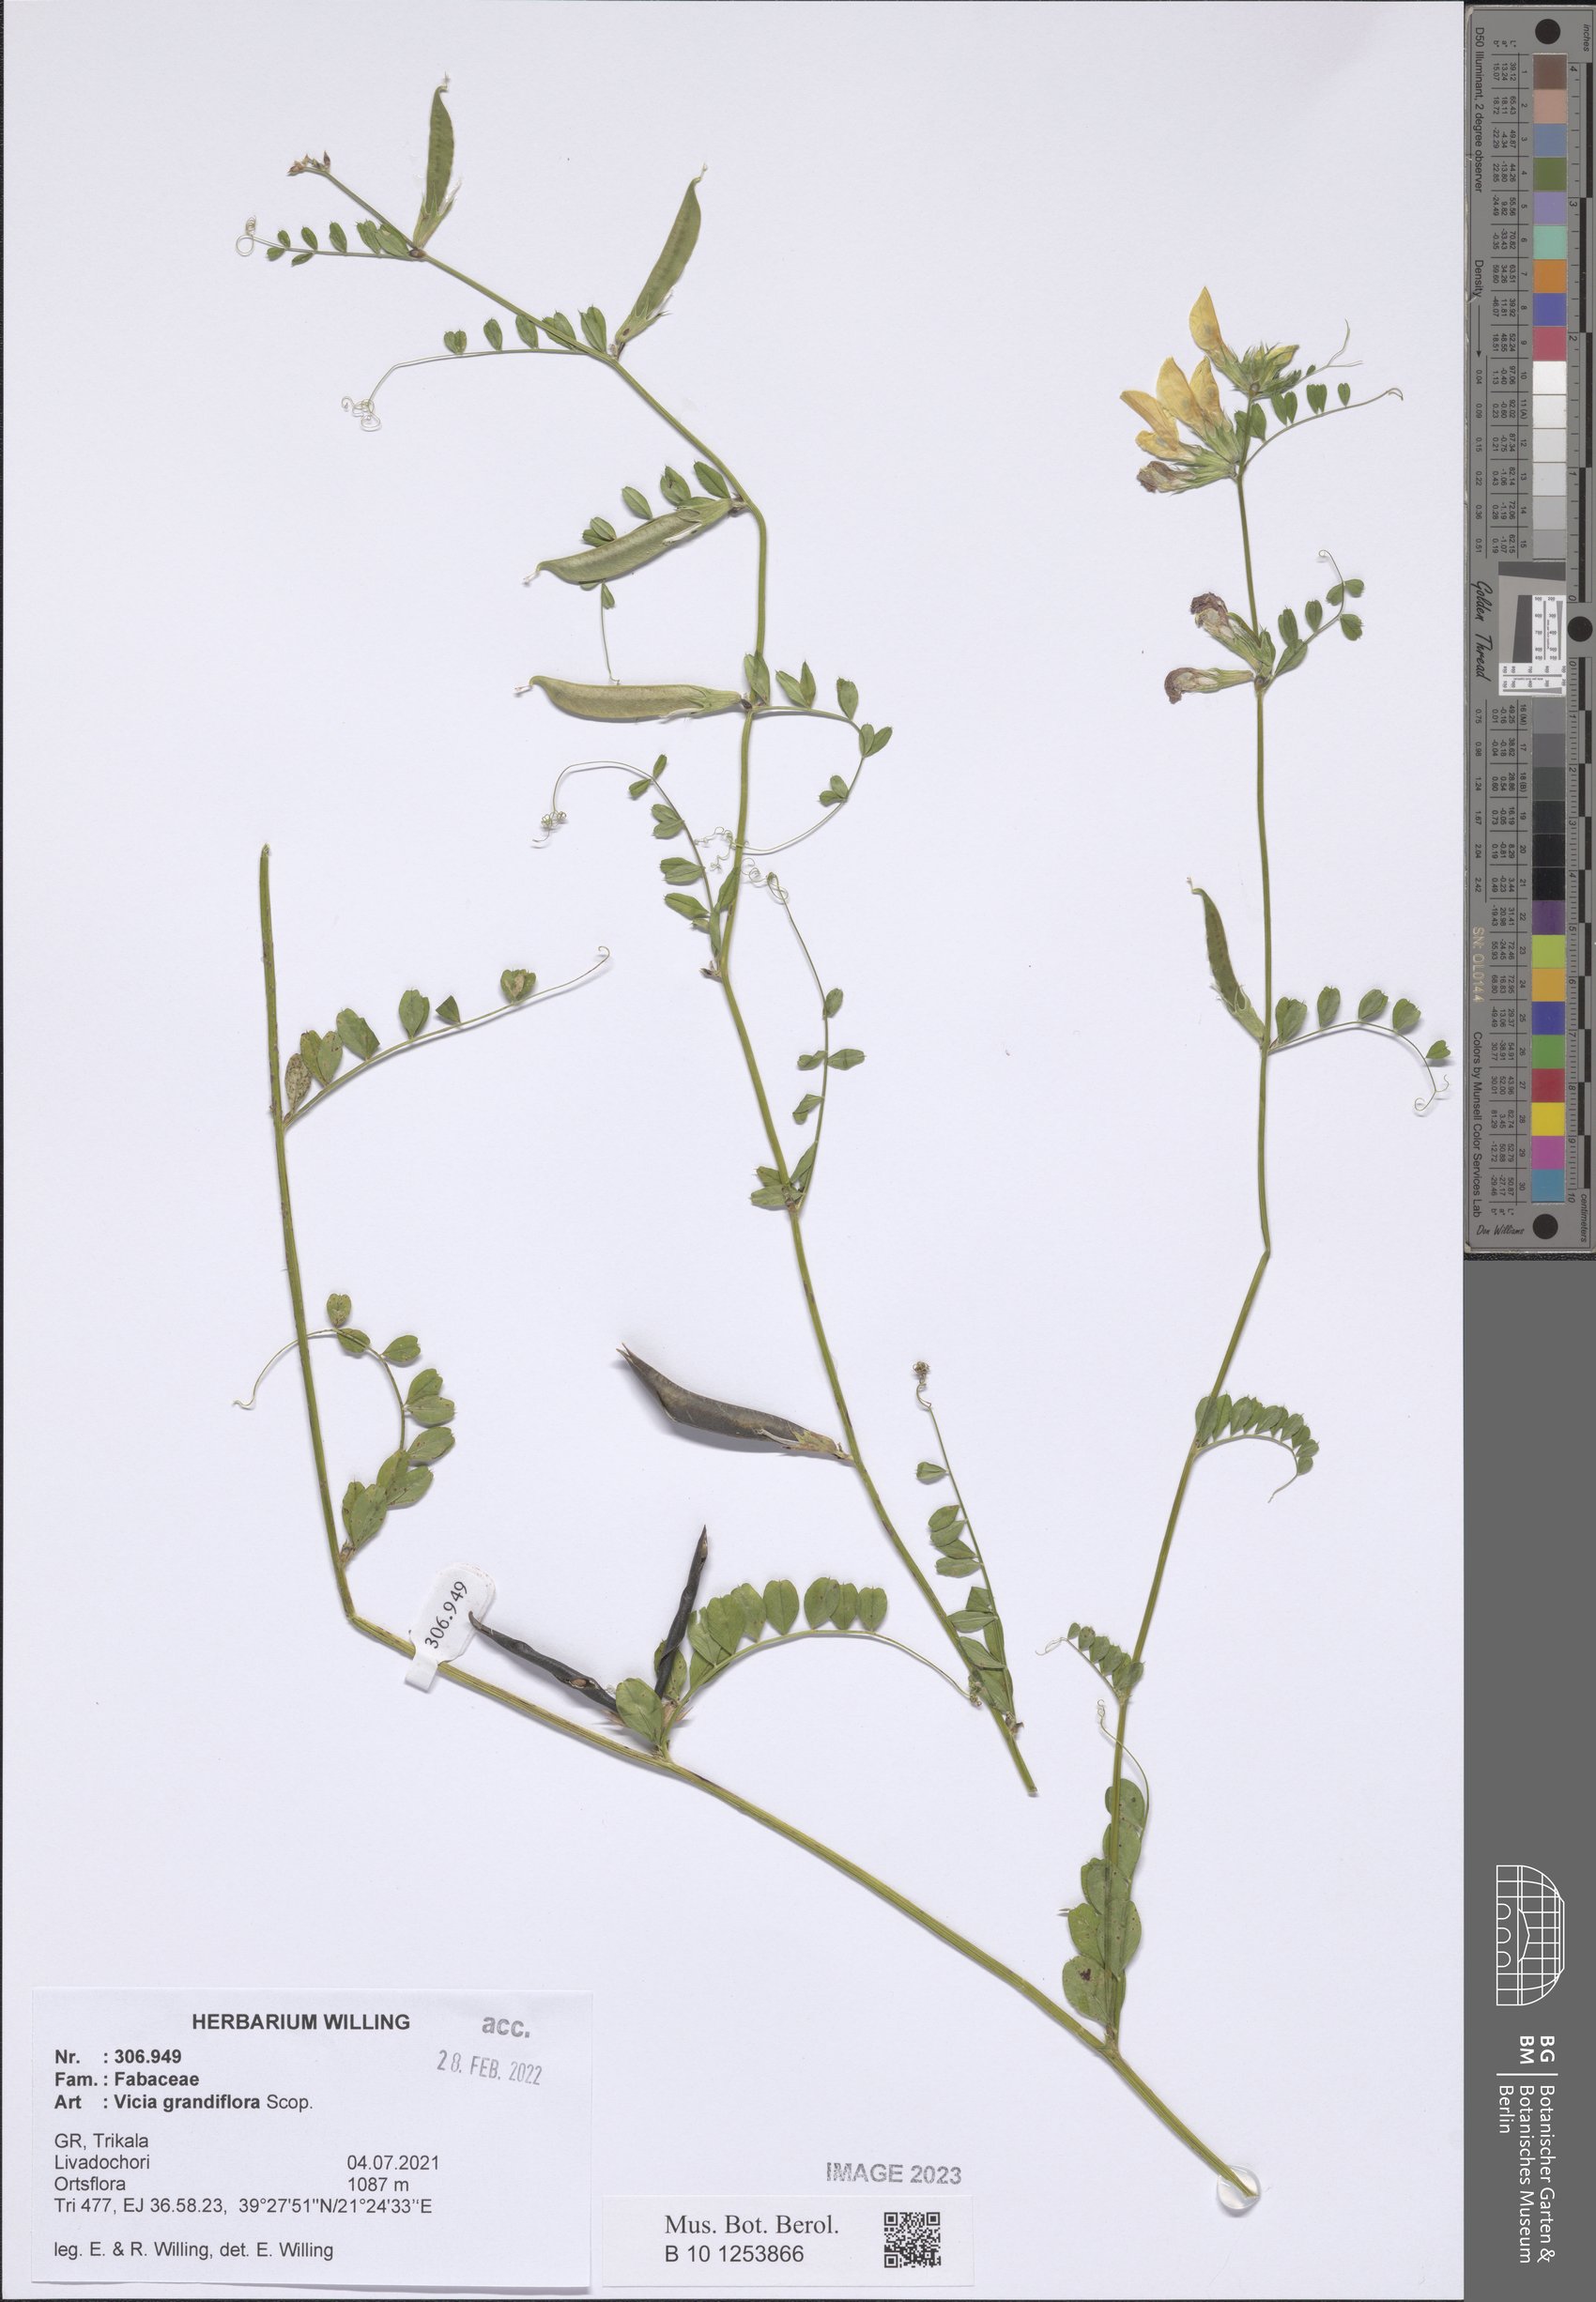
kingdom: Plantae
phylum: Tracheophyta
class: Magnoliopsida
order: Fabales
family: Fabaceae
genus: Vicia
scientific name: Vicia grandiflora
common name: Large yellow vetch
